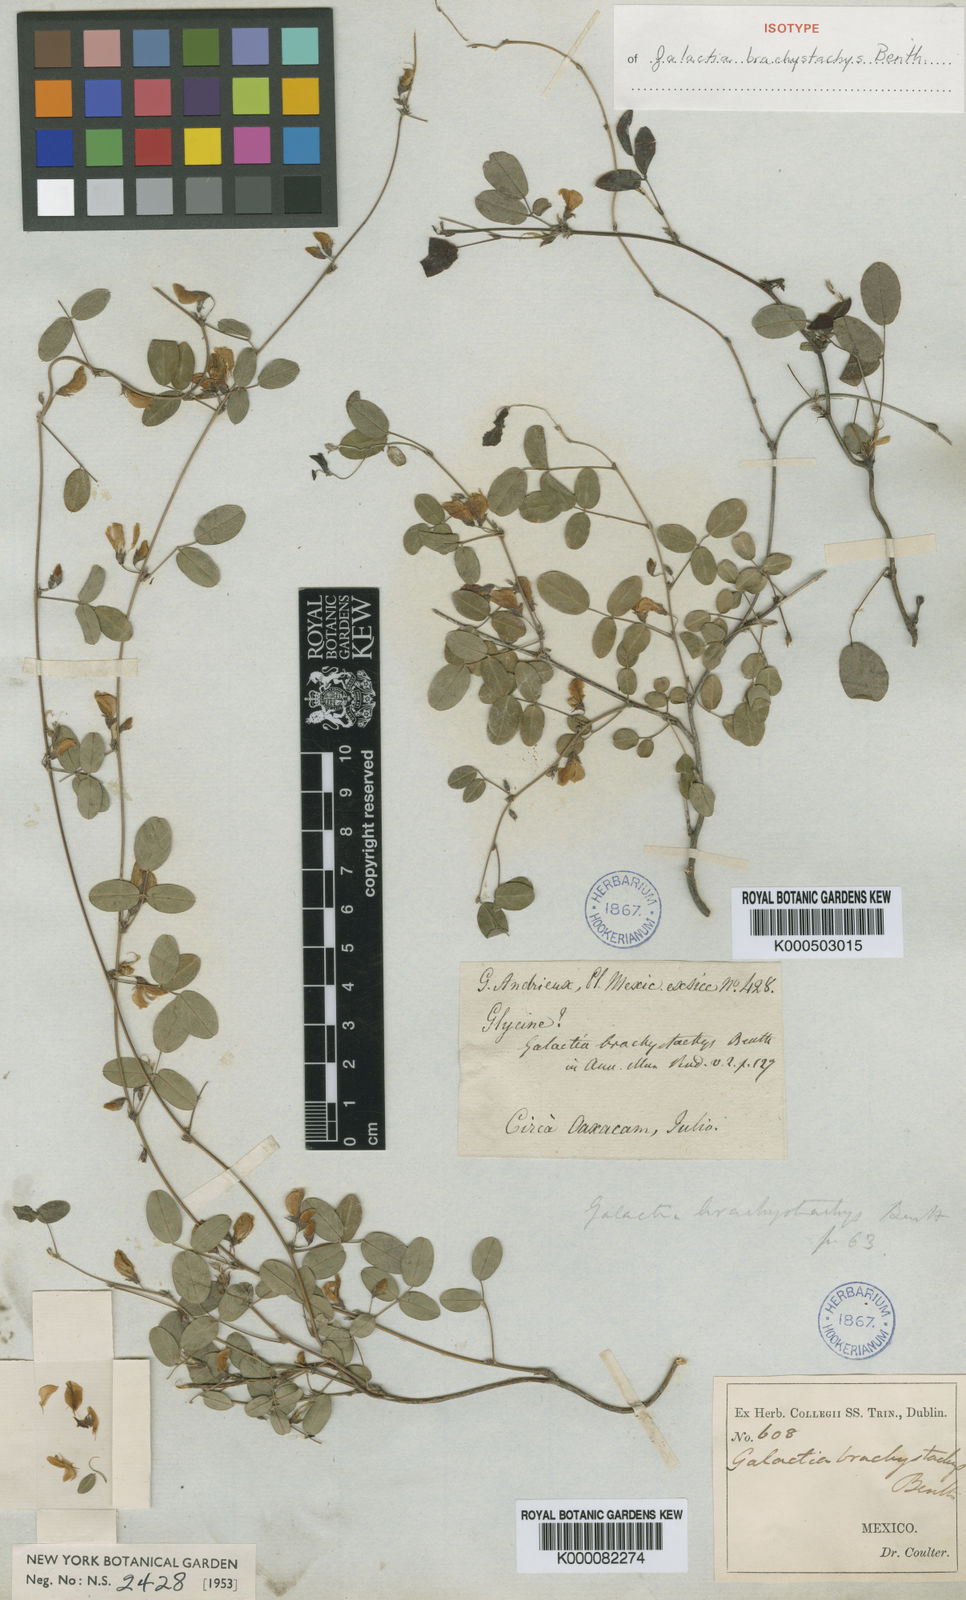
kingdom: Plantae
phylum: Tracheophyta
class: Magnoliopsida
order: Fabales
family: Fabaceae
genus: Nanogalactia
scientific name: Nanogalactia brachystachys
